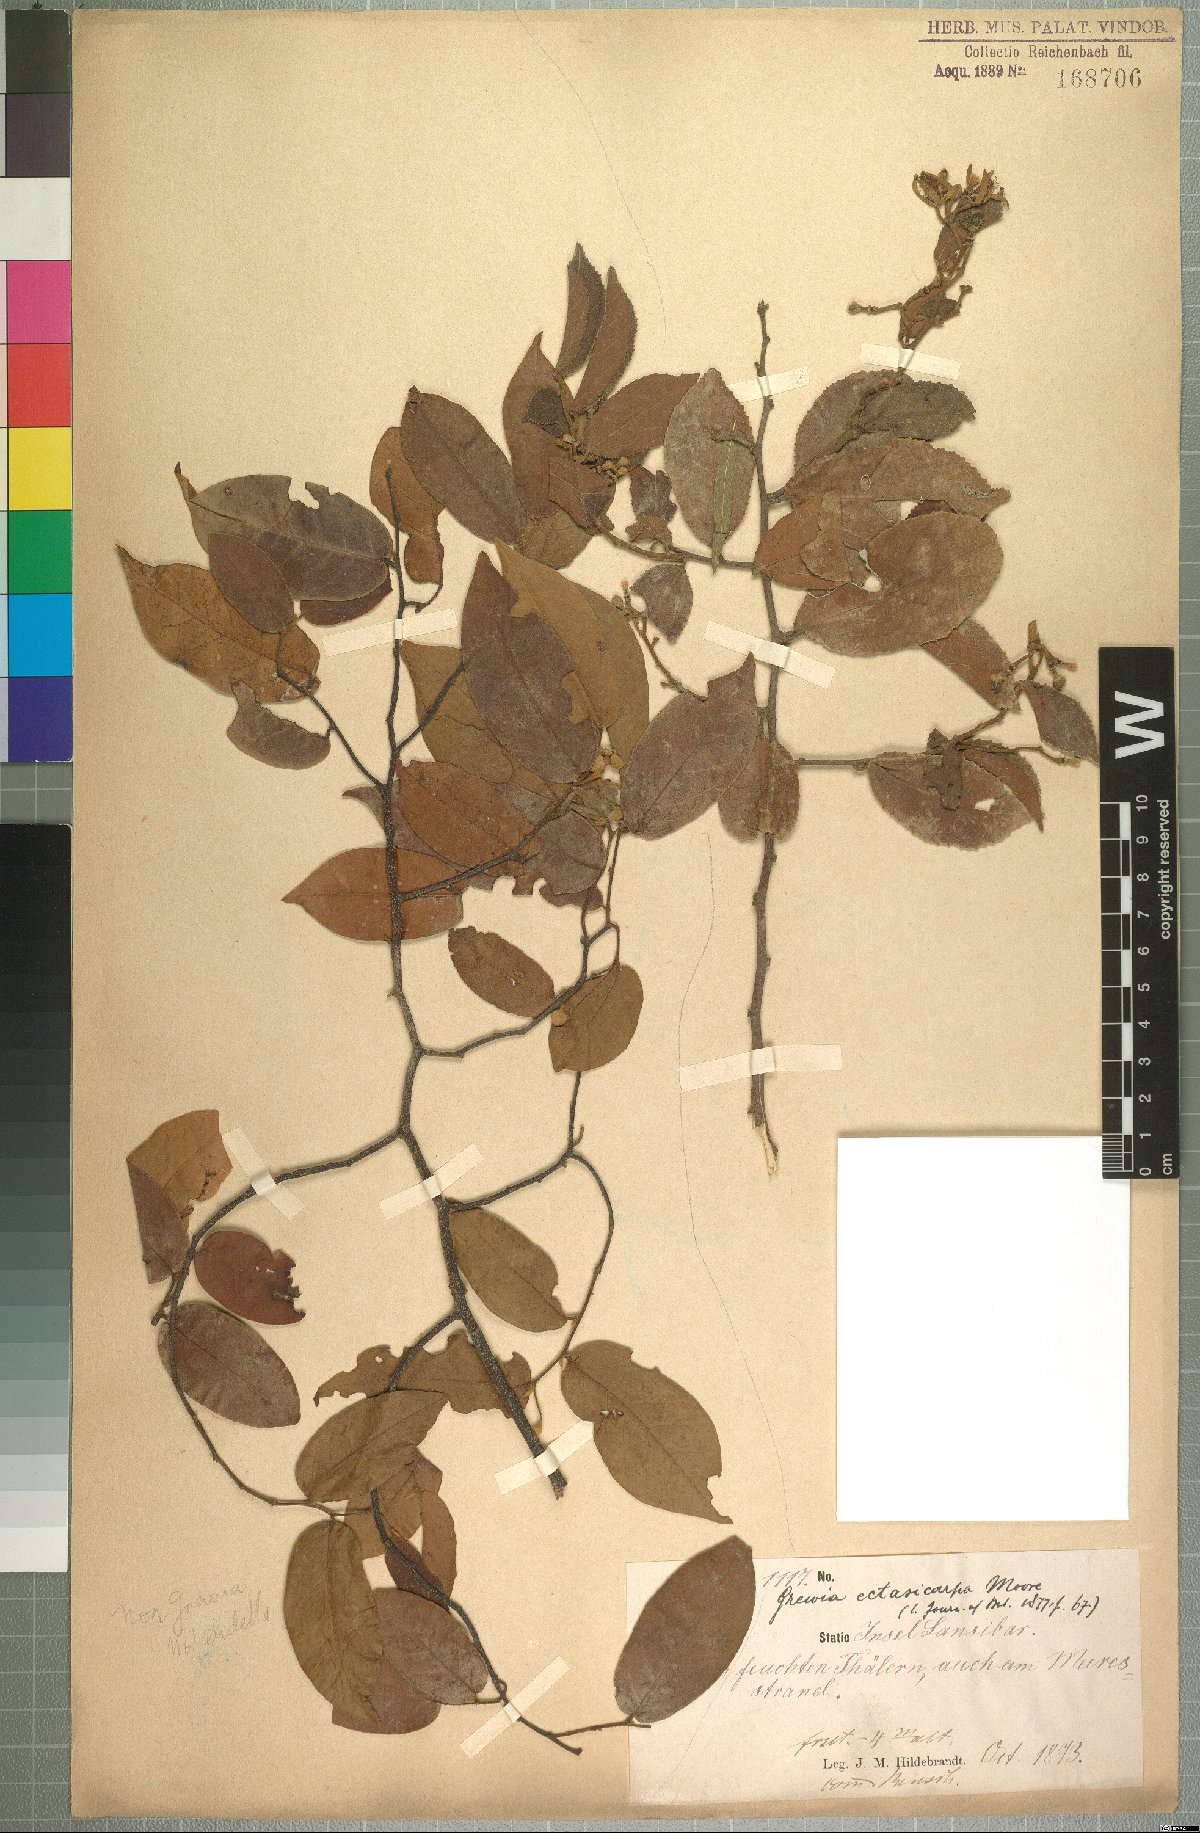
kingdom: Plantae
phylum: Tracheophyta
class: Magnoliopsida
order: Malvales
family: Malvaceae
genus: Grewia
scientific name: Grewia capitellata
